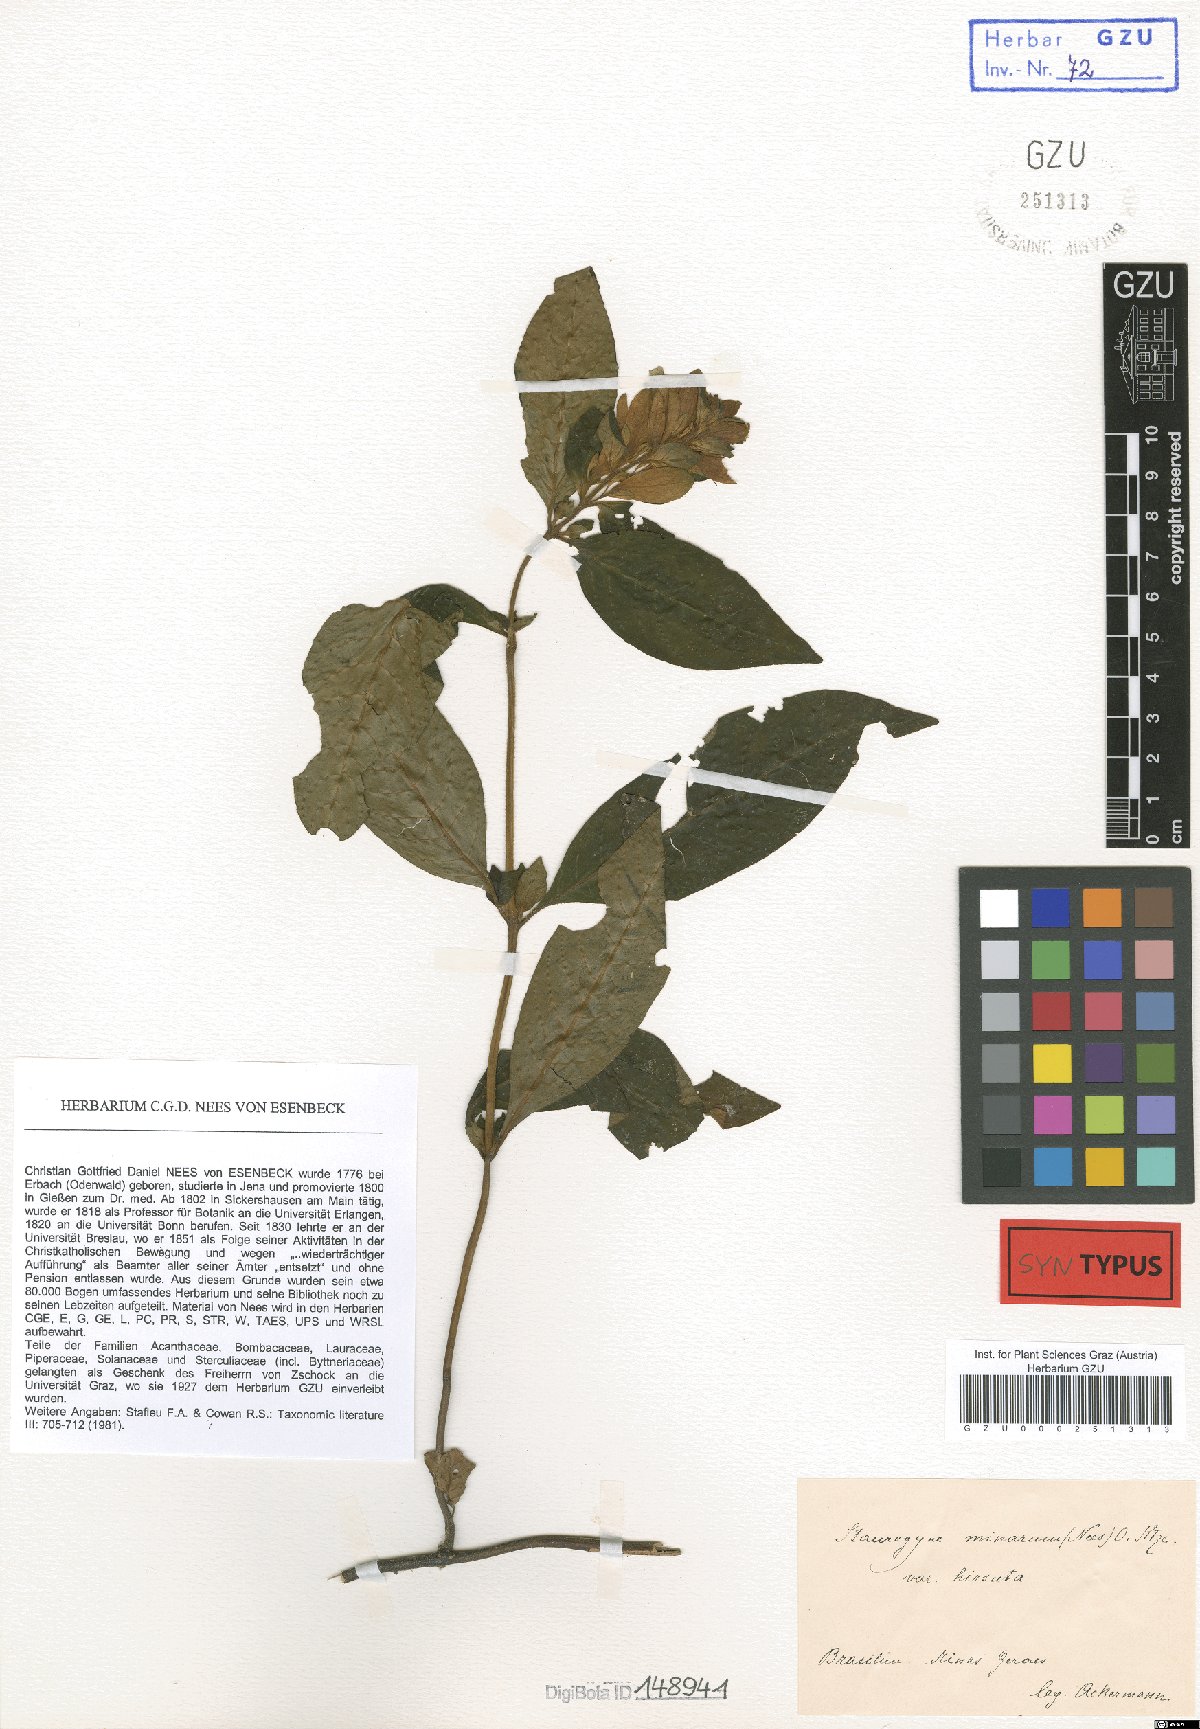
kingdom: Plantae
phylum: Tracheophyta
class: Magnoliopsida
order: Lamiales
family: Acanthaceae
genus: Staurogyne
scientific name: Staurogyne minarum
